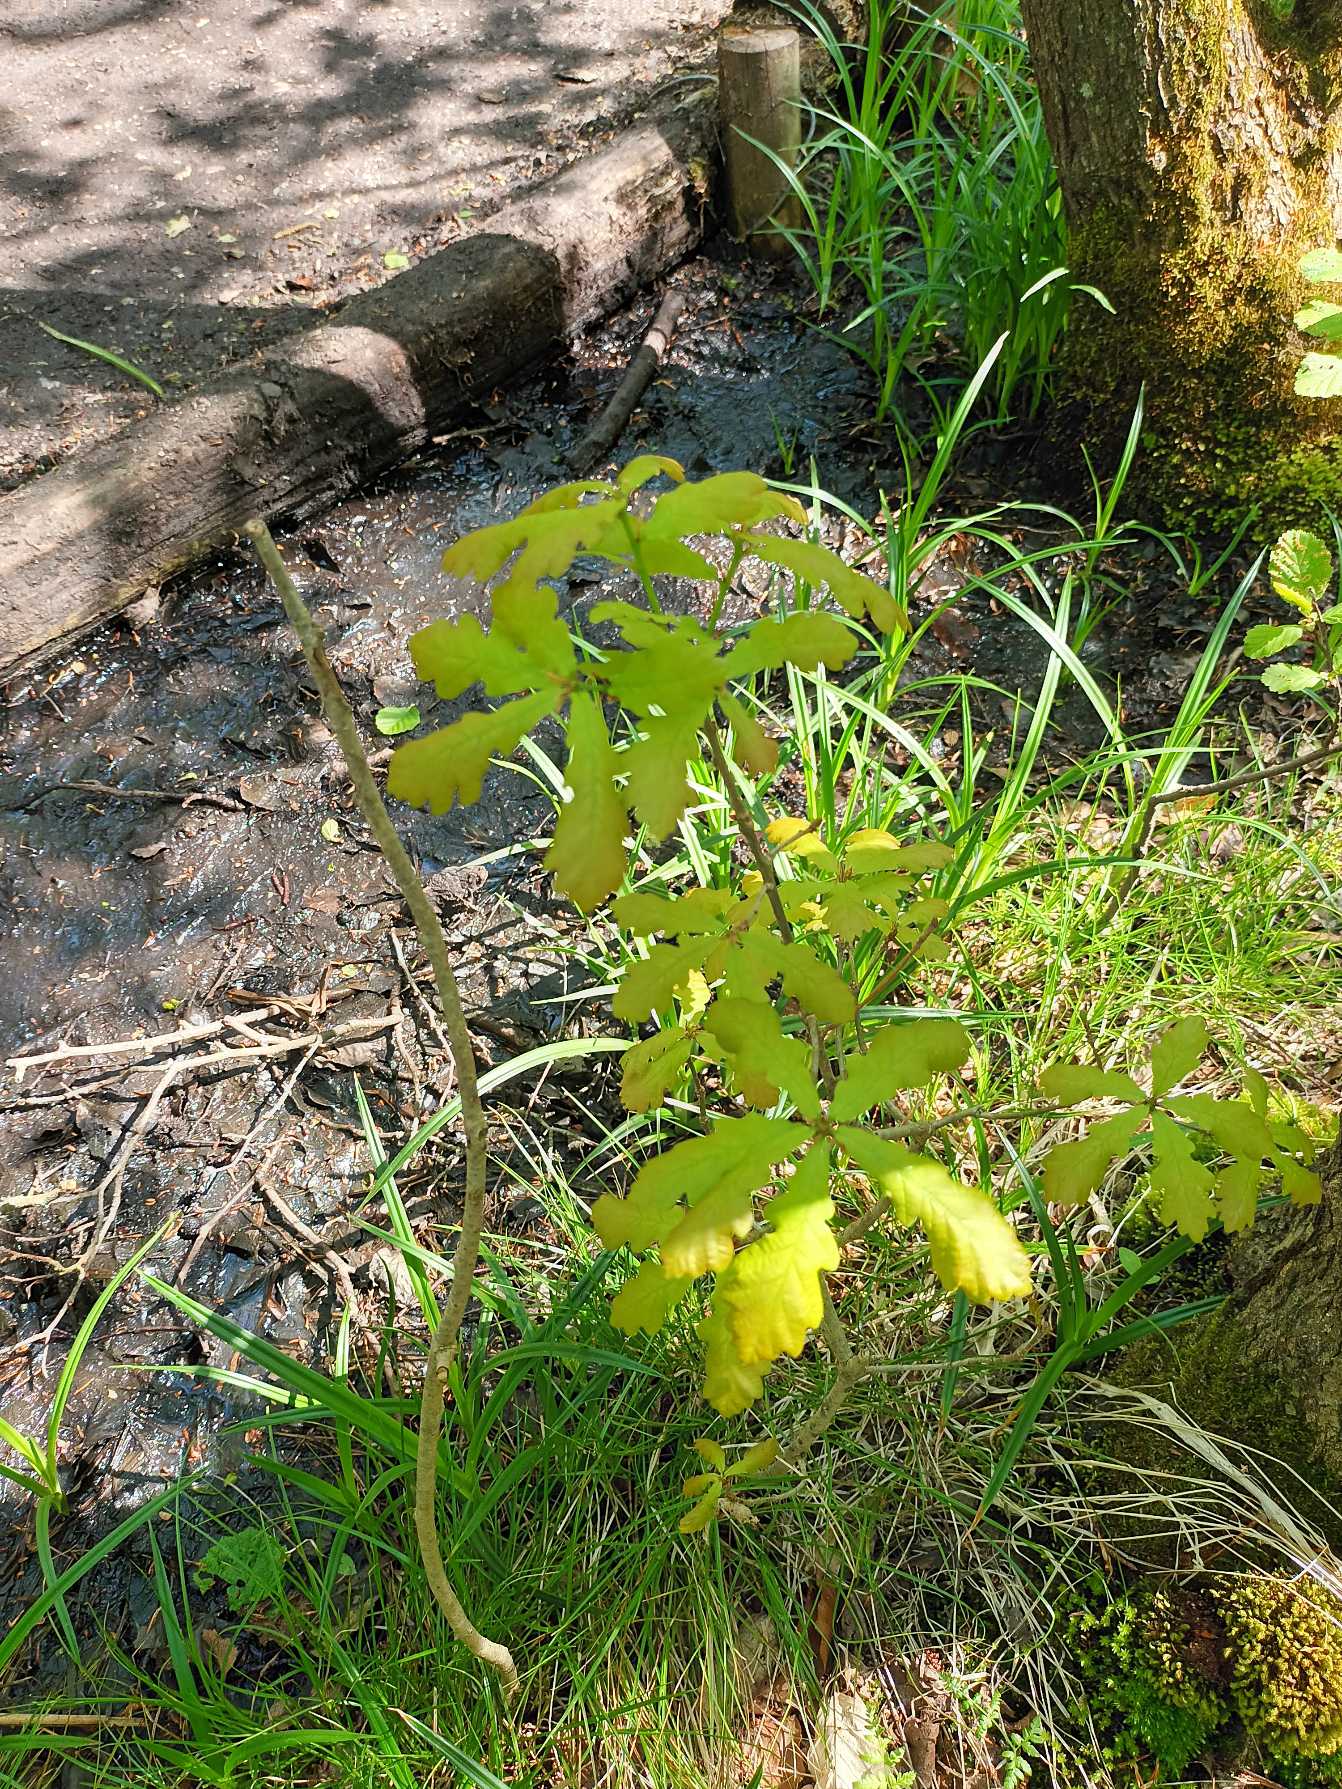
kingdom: Plantae
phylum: Tracheophyta
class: Magnoliopsida
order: Fagales
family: Fagaceae
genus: Quercus
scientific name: Quercus robur
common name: Stilk-eg/almindelig eg
